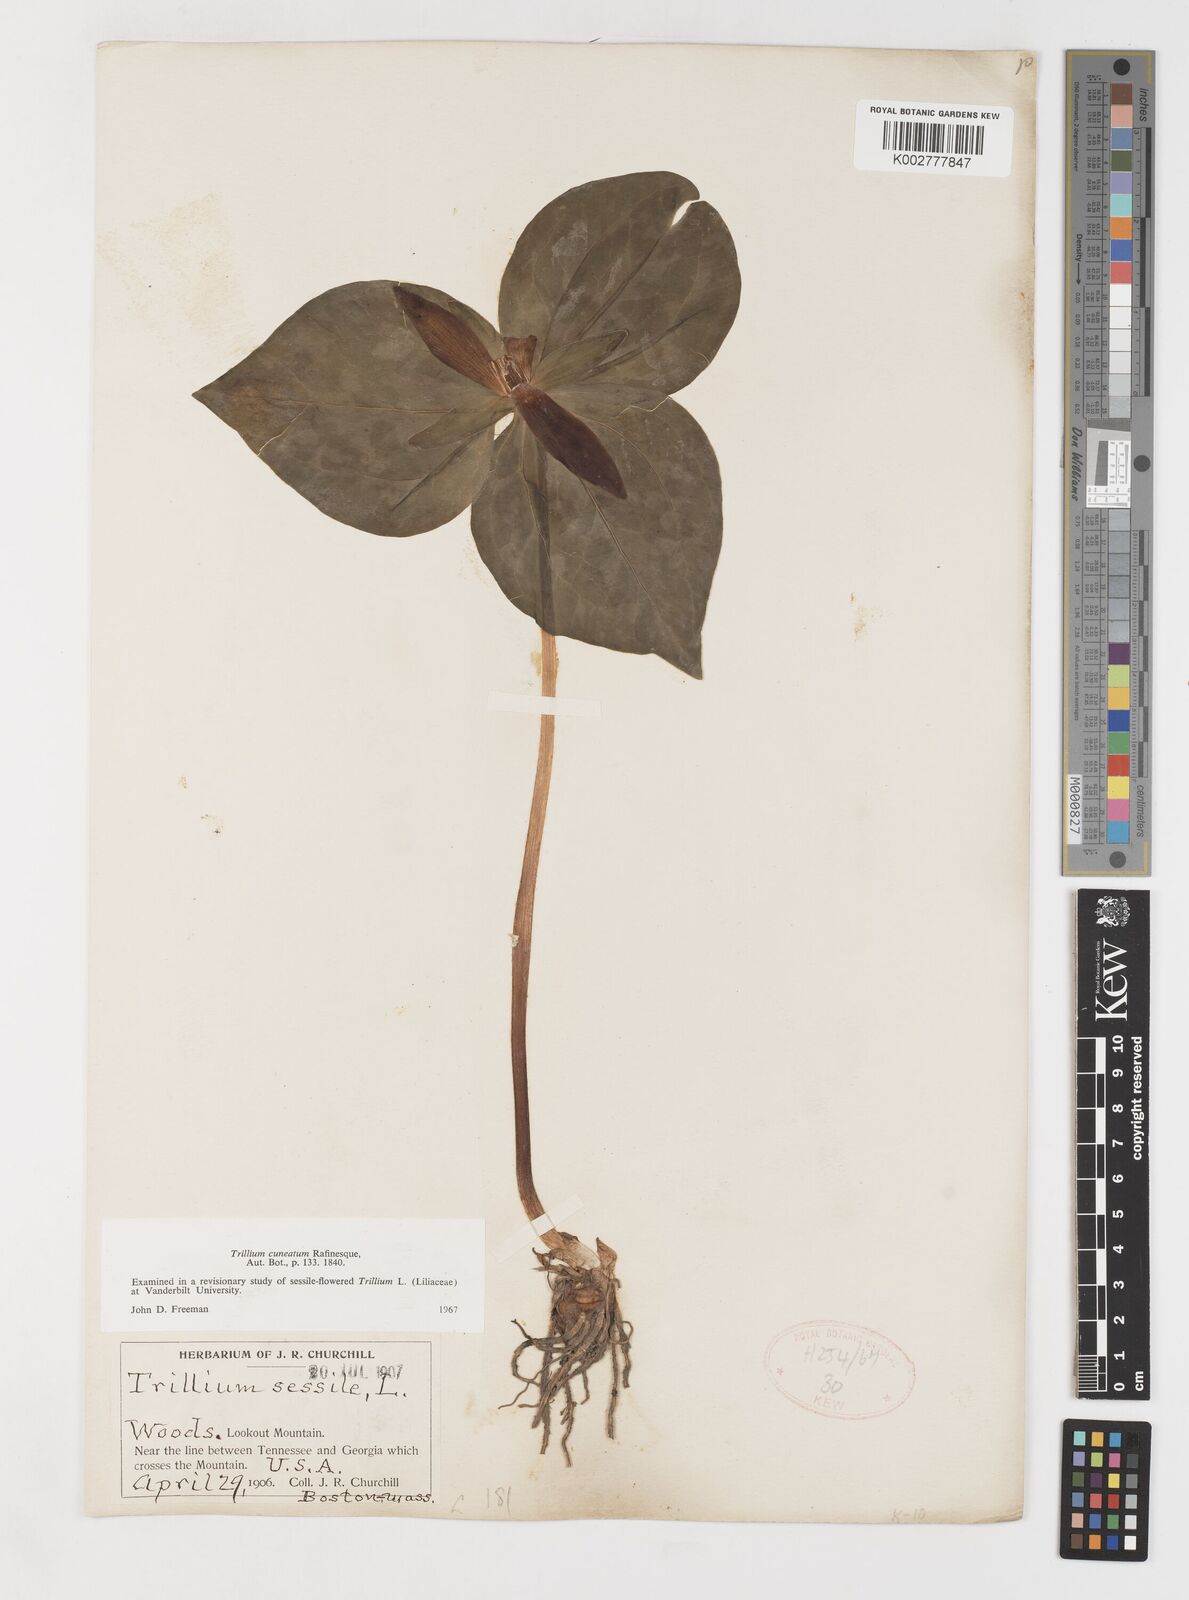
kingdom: Plantae
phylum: Tracheophyta
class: Liliopsida
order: Liliales
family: Melanthiaceae
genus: Trillium
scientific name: Trillium cuneatum
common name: Cuneate trillium
